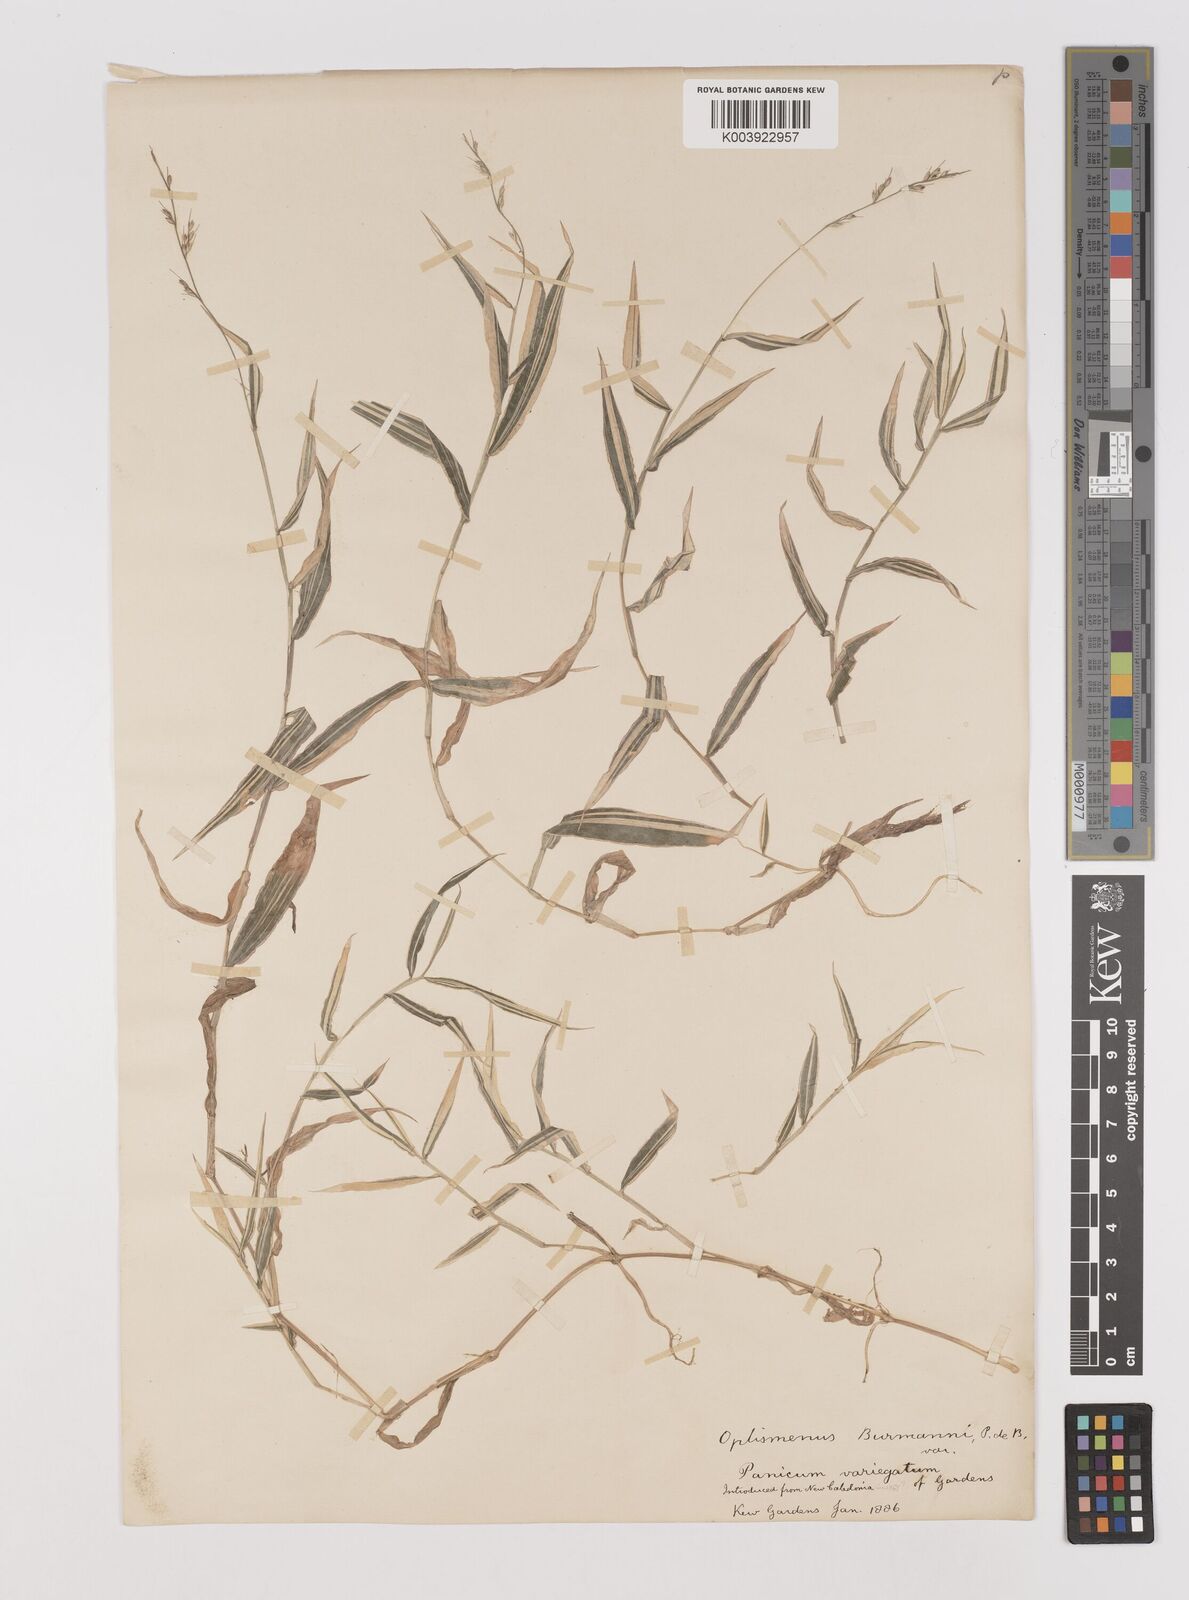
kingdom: Plantae
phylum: Tracheophyta
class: Liliopsida
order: Poales
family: Poaceae
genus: Oplismenus
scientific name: Oplismenus hirtellus
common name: Basketgrass
